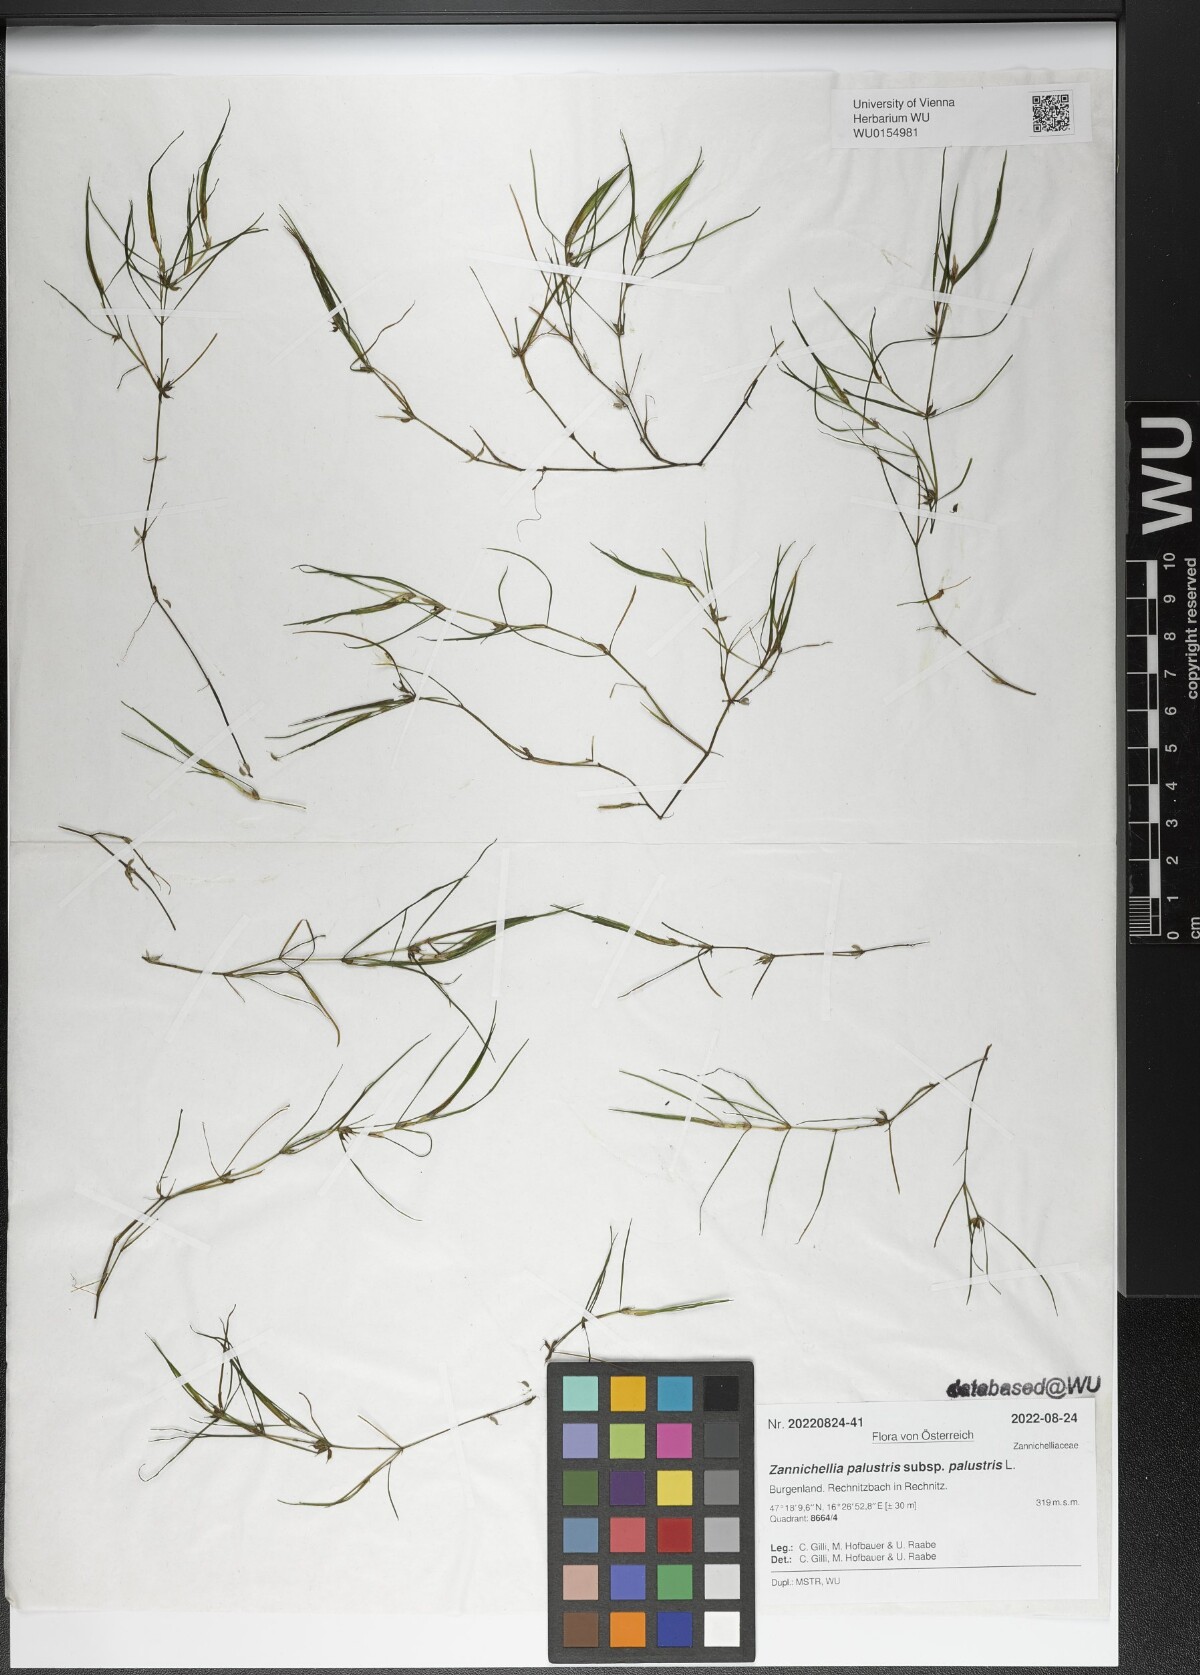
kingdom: Plantae
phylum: Tracheophyta
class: Liliopsida
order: Alismatales
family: Potamogetonaceae
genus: Zannichellia
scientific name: Zannichellia palustris
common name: Horned pondweed
